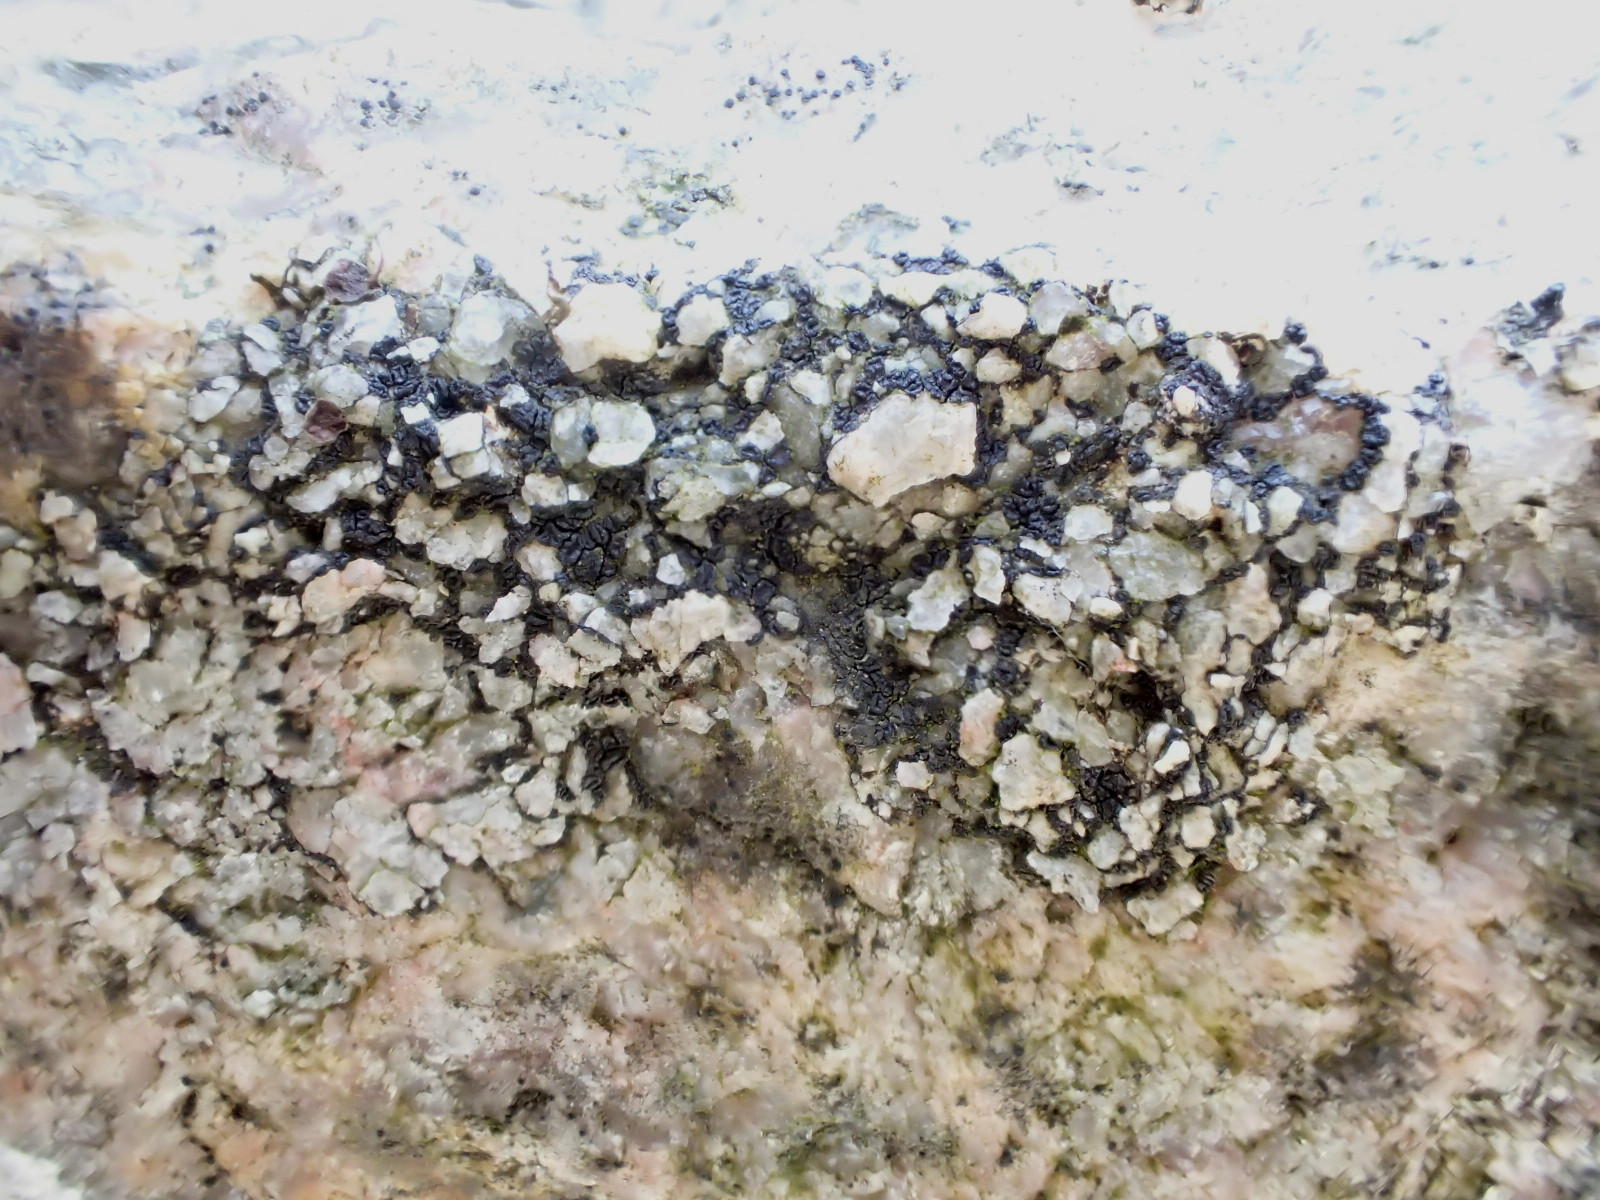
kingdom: Fungi
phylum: Ascomycota
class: Lecanoromycetes
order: Acarosporales
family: Acarosporaceae
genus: Acarospora
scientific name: Acarospora privigna
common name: sort foldekantlav
